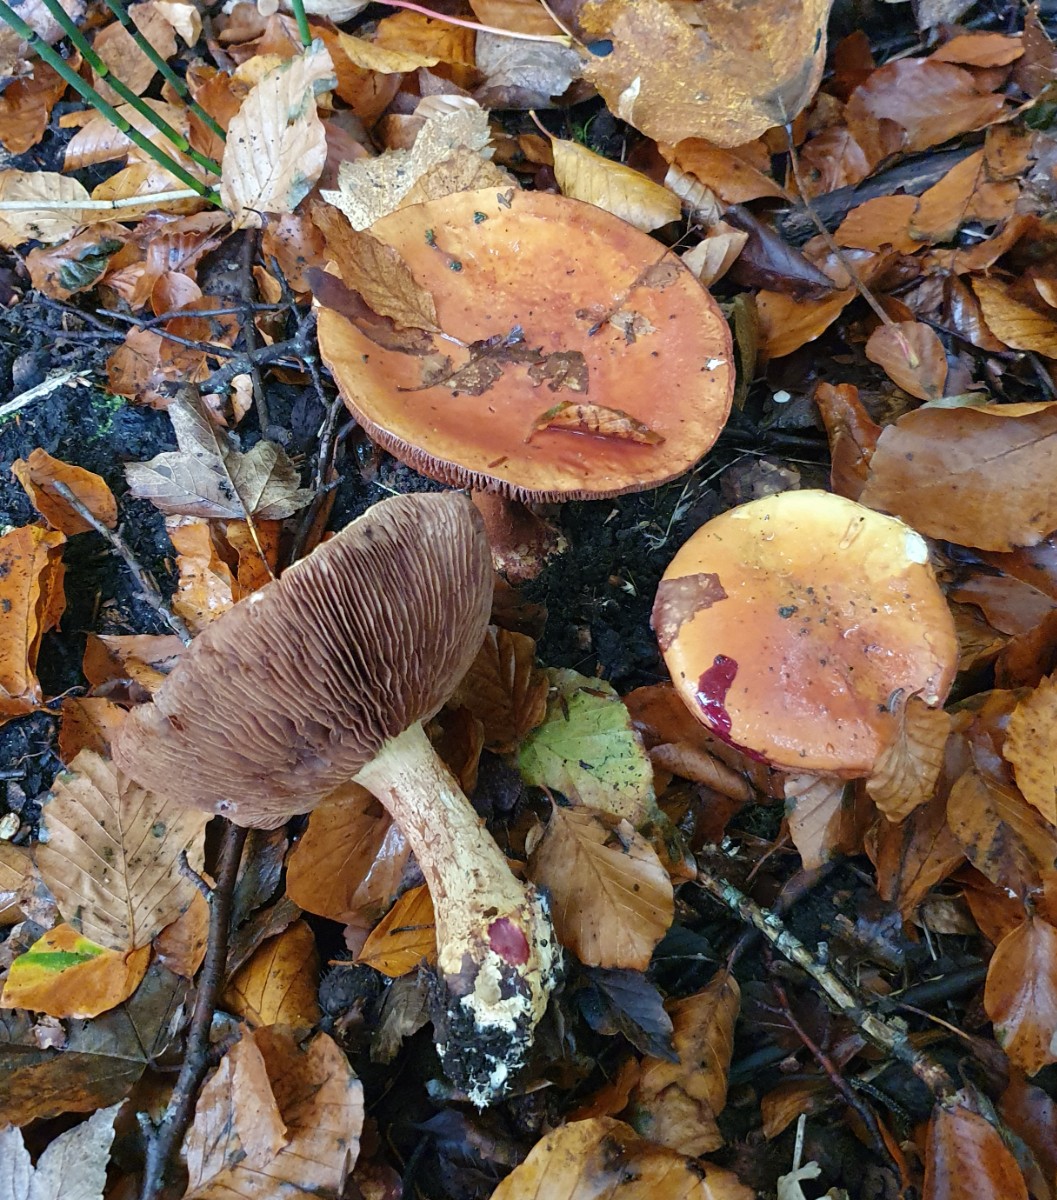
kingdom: Fungi
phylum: Basidiomycota
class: Agaricomycetes
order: Agaricales
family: Cortinariaceae
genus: Calonarius
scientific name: Calonarius elegantissimus
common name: orangegylden slørhat
